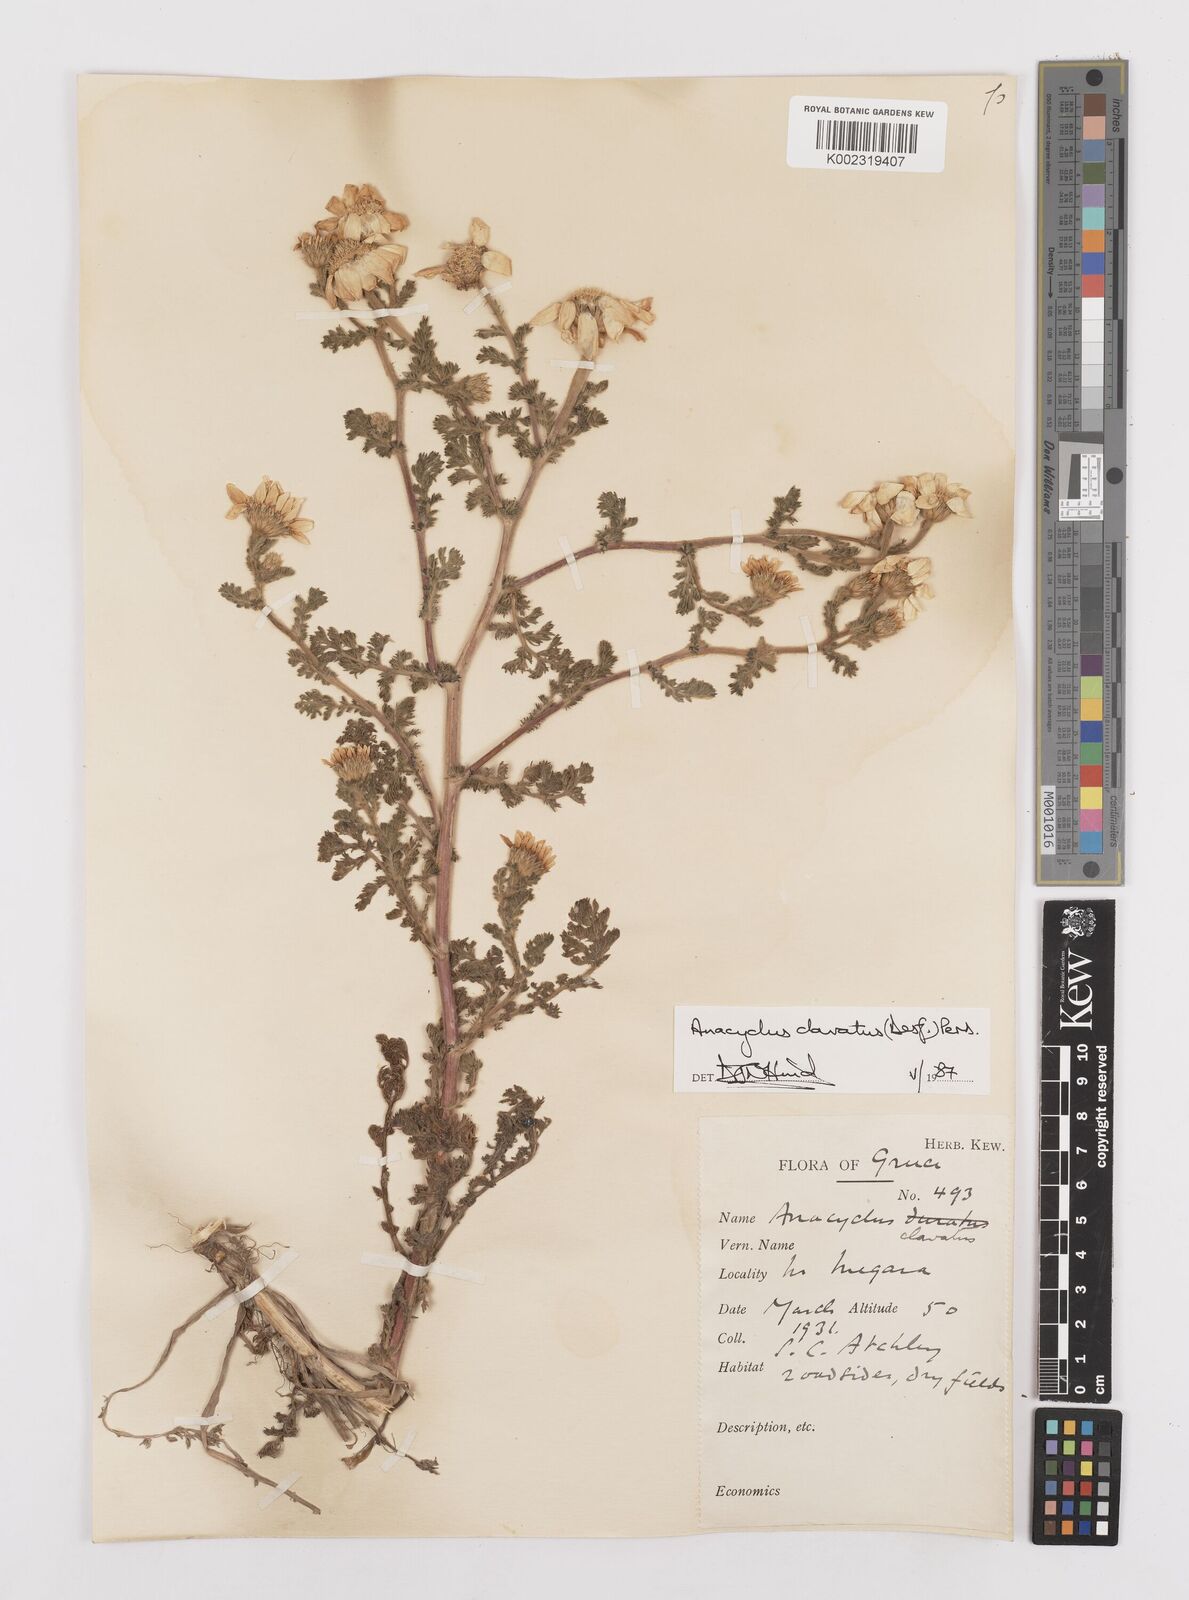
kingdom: Plantae
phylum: Tracheophyta
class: Magnoliopsida
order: Asterales
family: Asteraceae
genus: Anacyclus
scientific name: Anacyclus clavatus
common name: Whitebuttons
